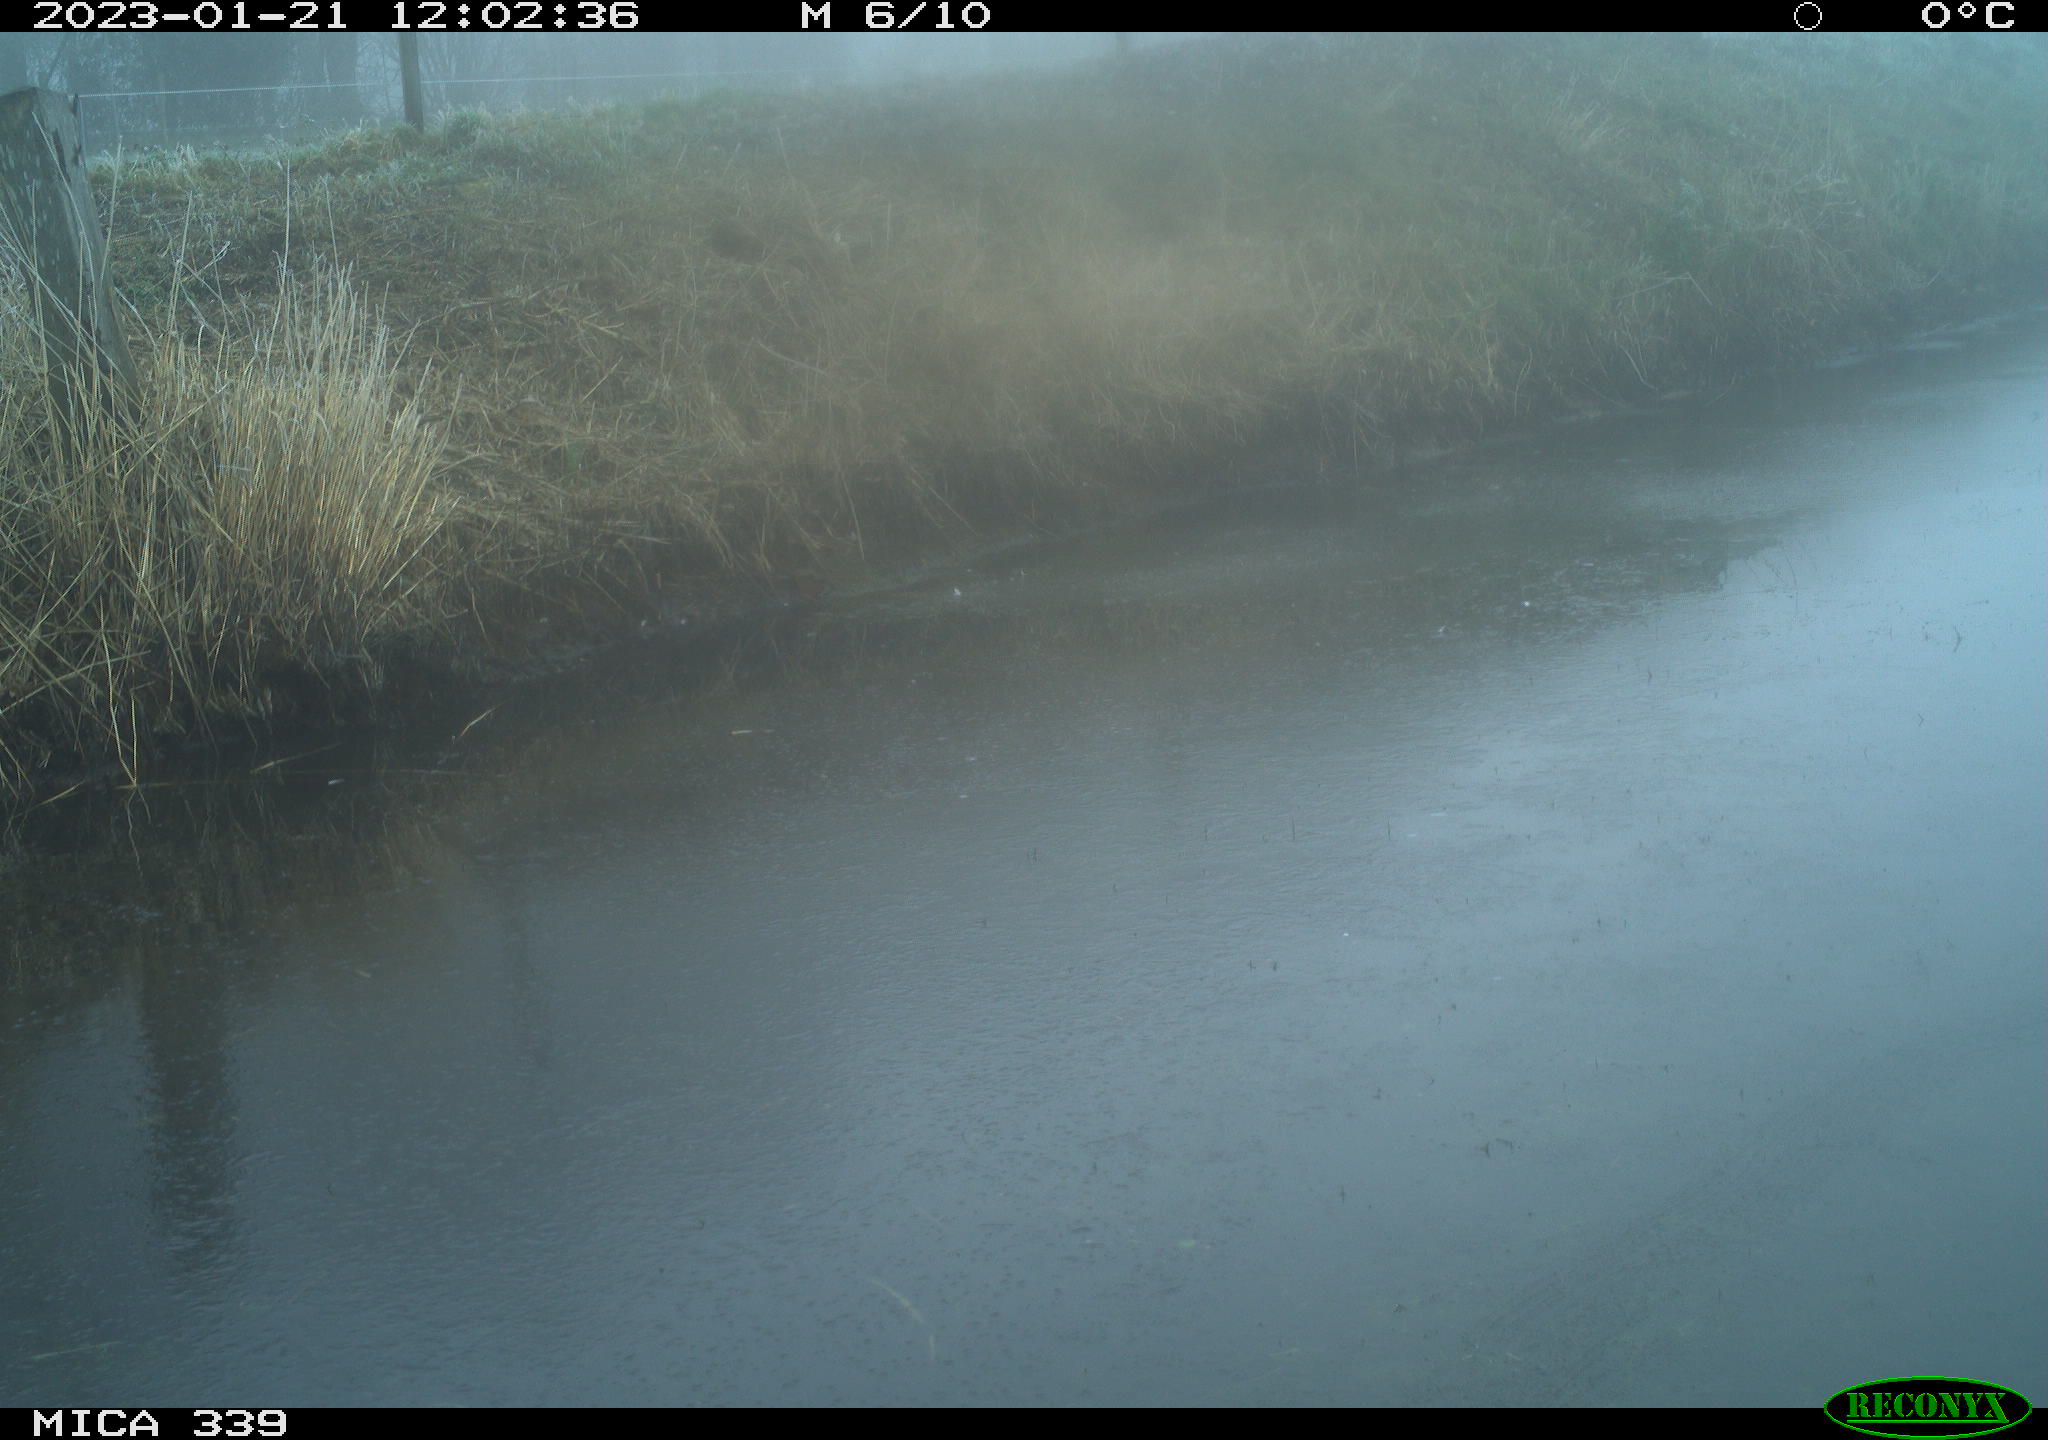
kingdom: Animalia
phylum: Chordata
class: Aves
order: Pelecaniformes
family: Ardeidae
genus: Ardea
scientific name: Ardea cinerea
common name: Grey heron
